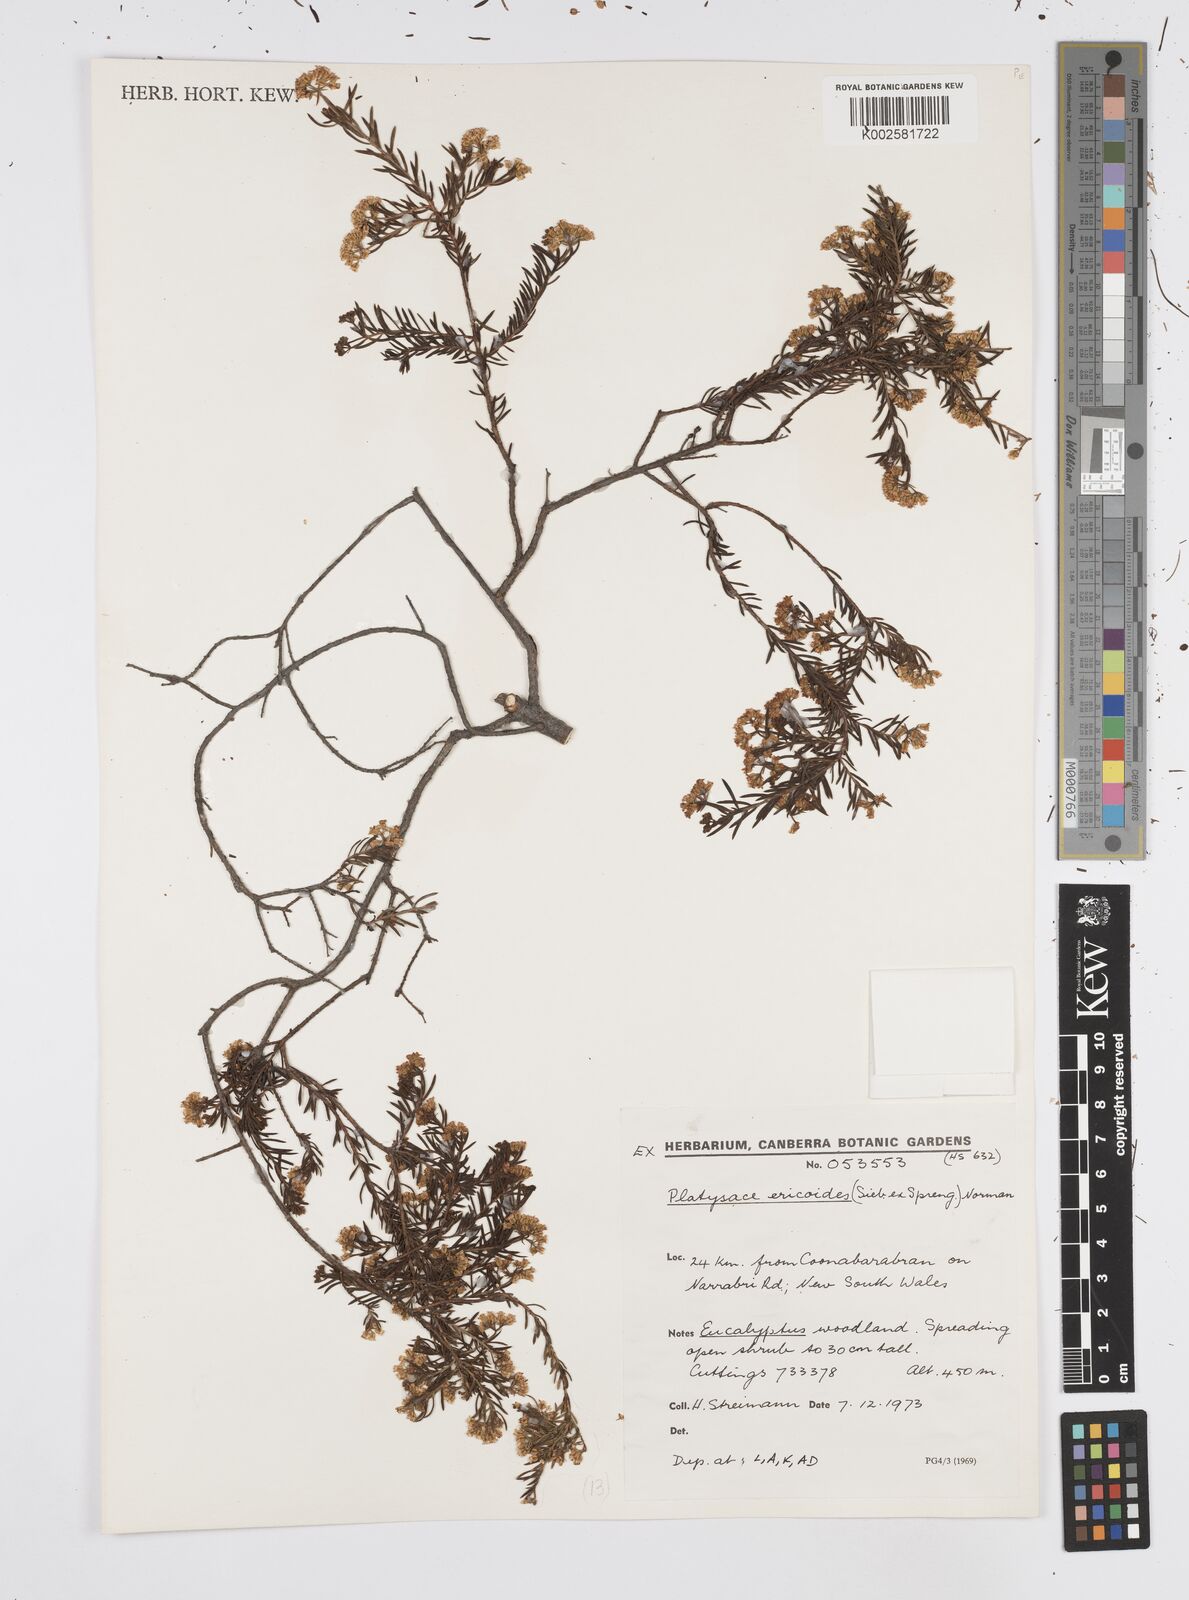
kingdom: Plantae
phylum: Tracheophyta
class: Magnoliopsida
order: Apiales
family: Apiaceae
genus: Platysace
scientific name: Platysace ericoides
